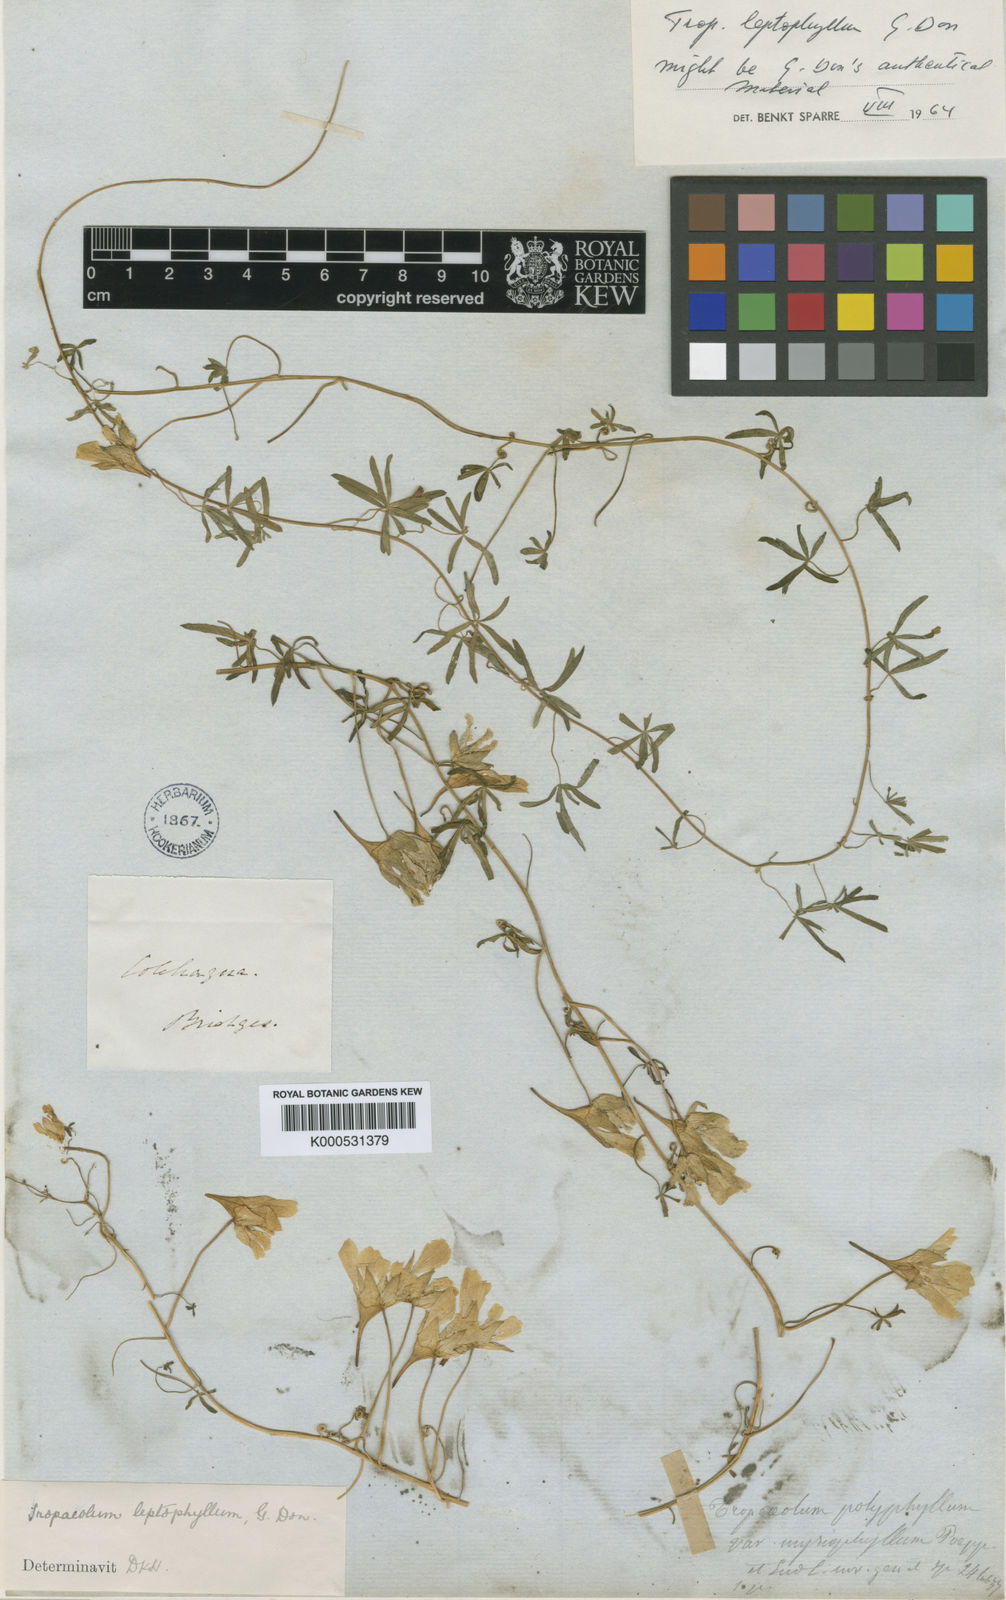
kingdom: Plantae
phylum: Tracheophyta
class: Magnoliopsida
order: Brassicales
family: Tropaeolaceae
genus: Tropaeolum
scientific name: Tropaeolum leptophyllum
